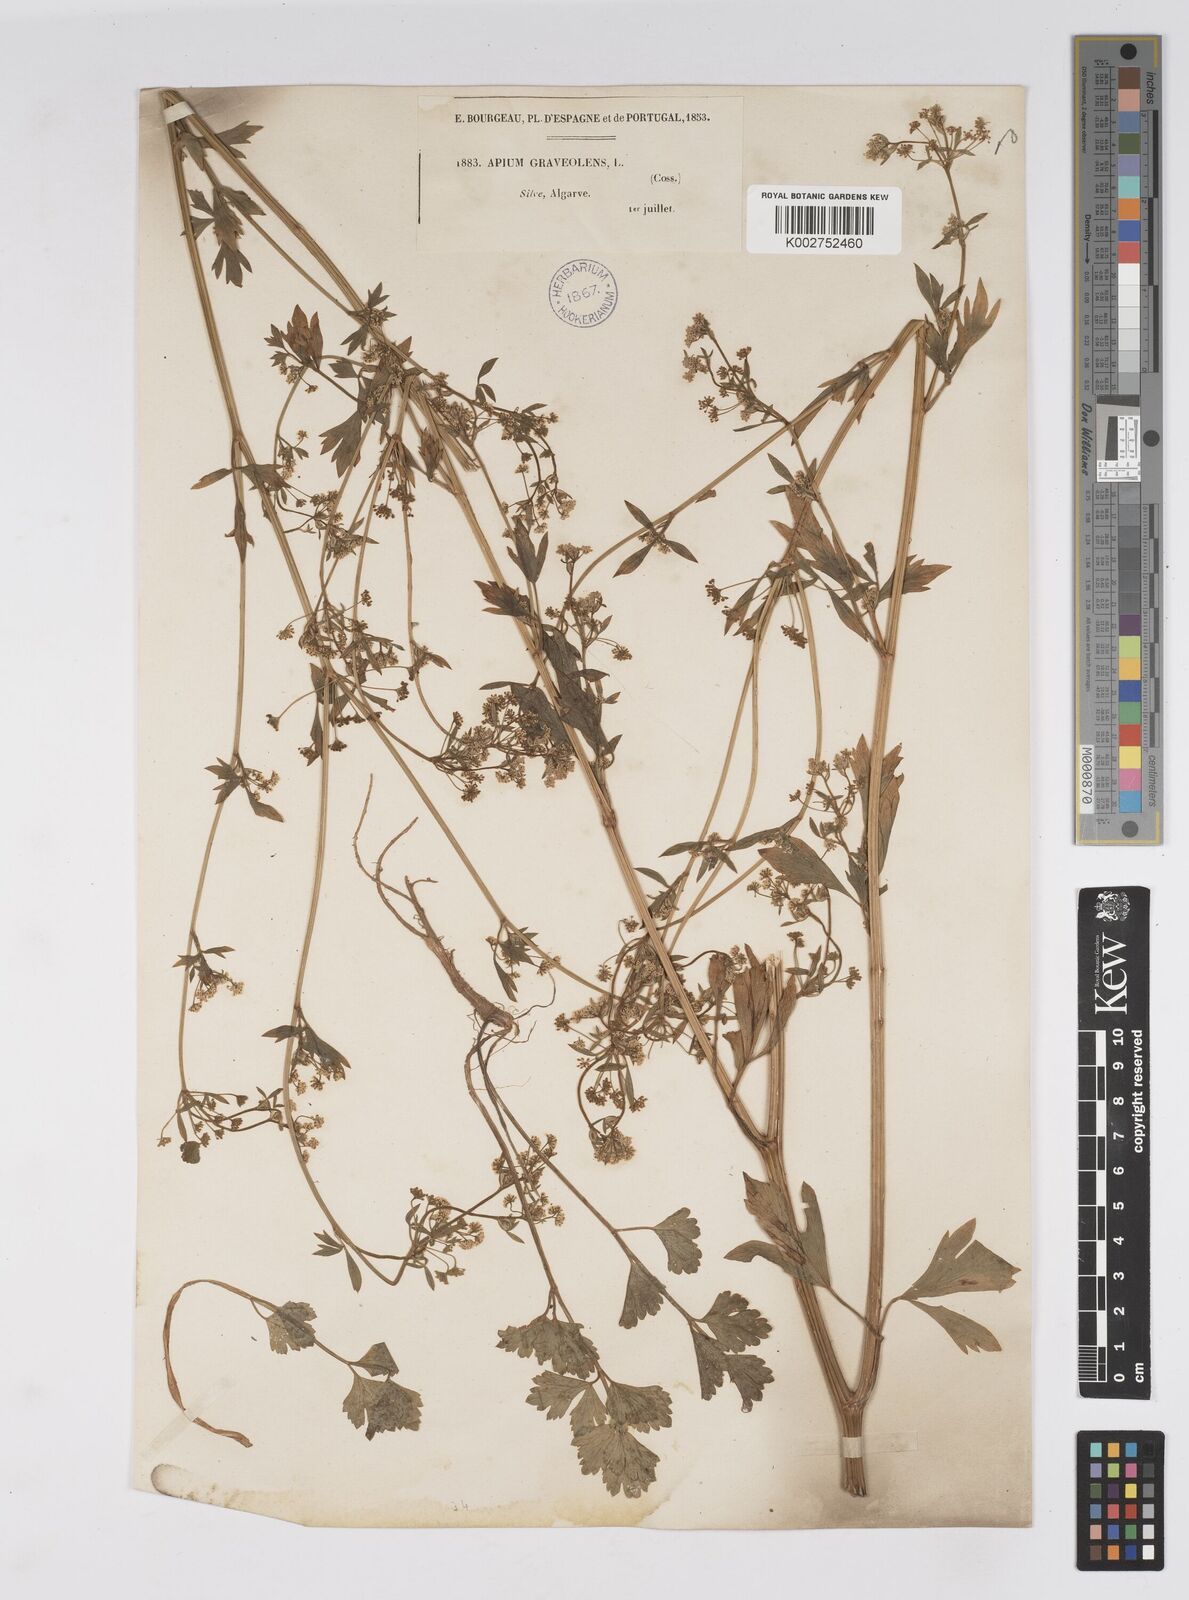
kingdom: Plantae
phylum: Tracheophyta
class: Magnoliopsida
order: Apiales
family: Apiaceae
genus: Apium
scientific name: Apium graveolens
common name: Wild celery
